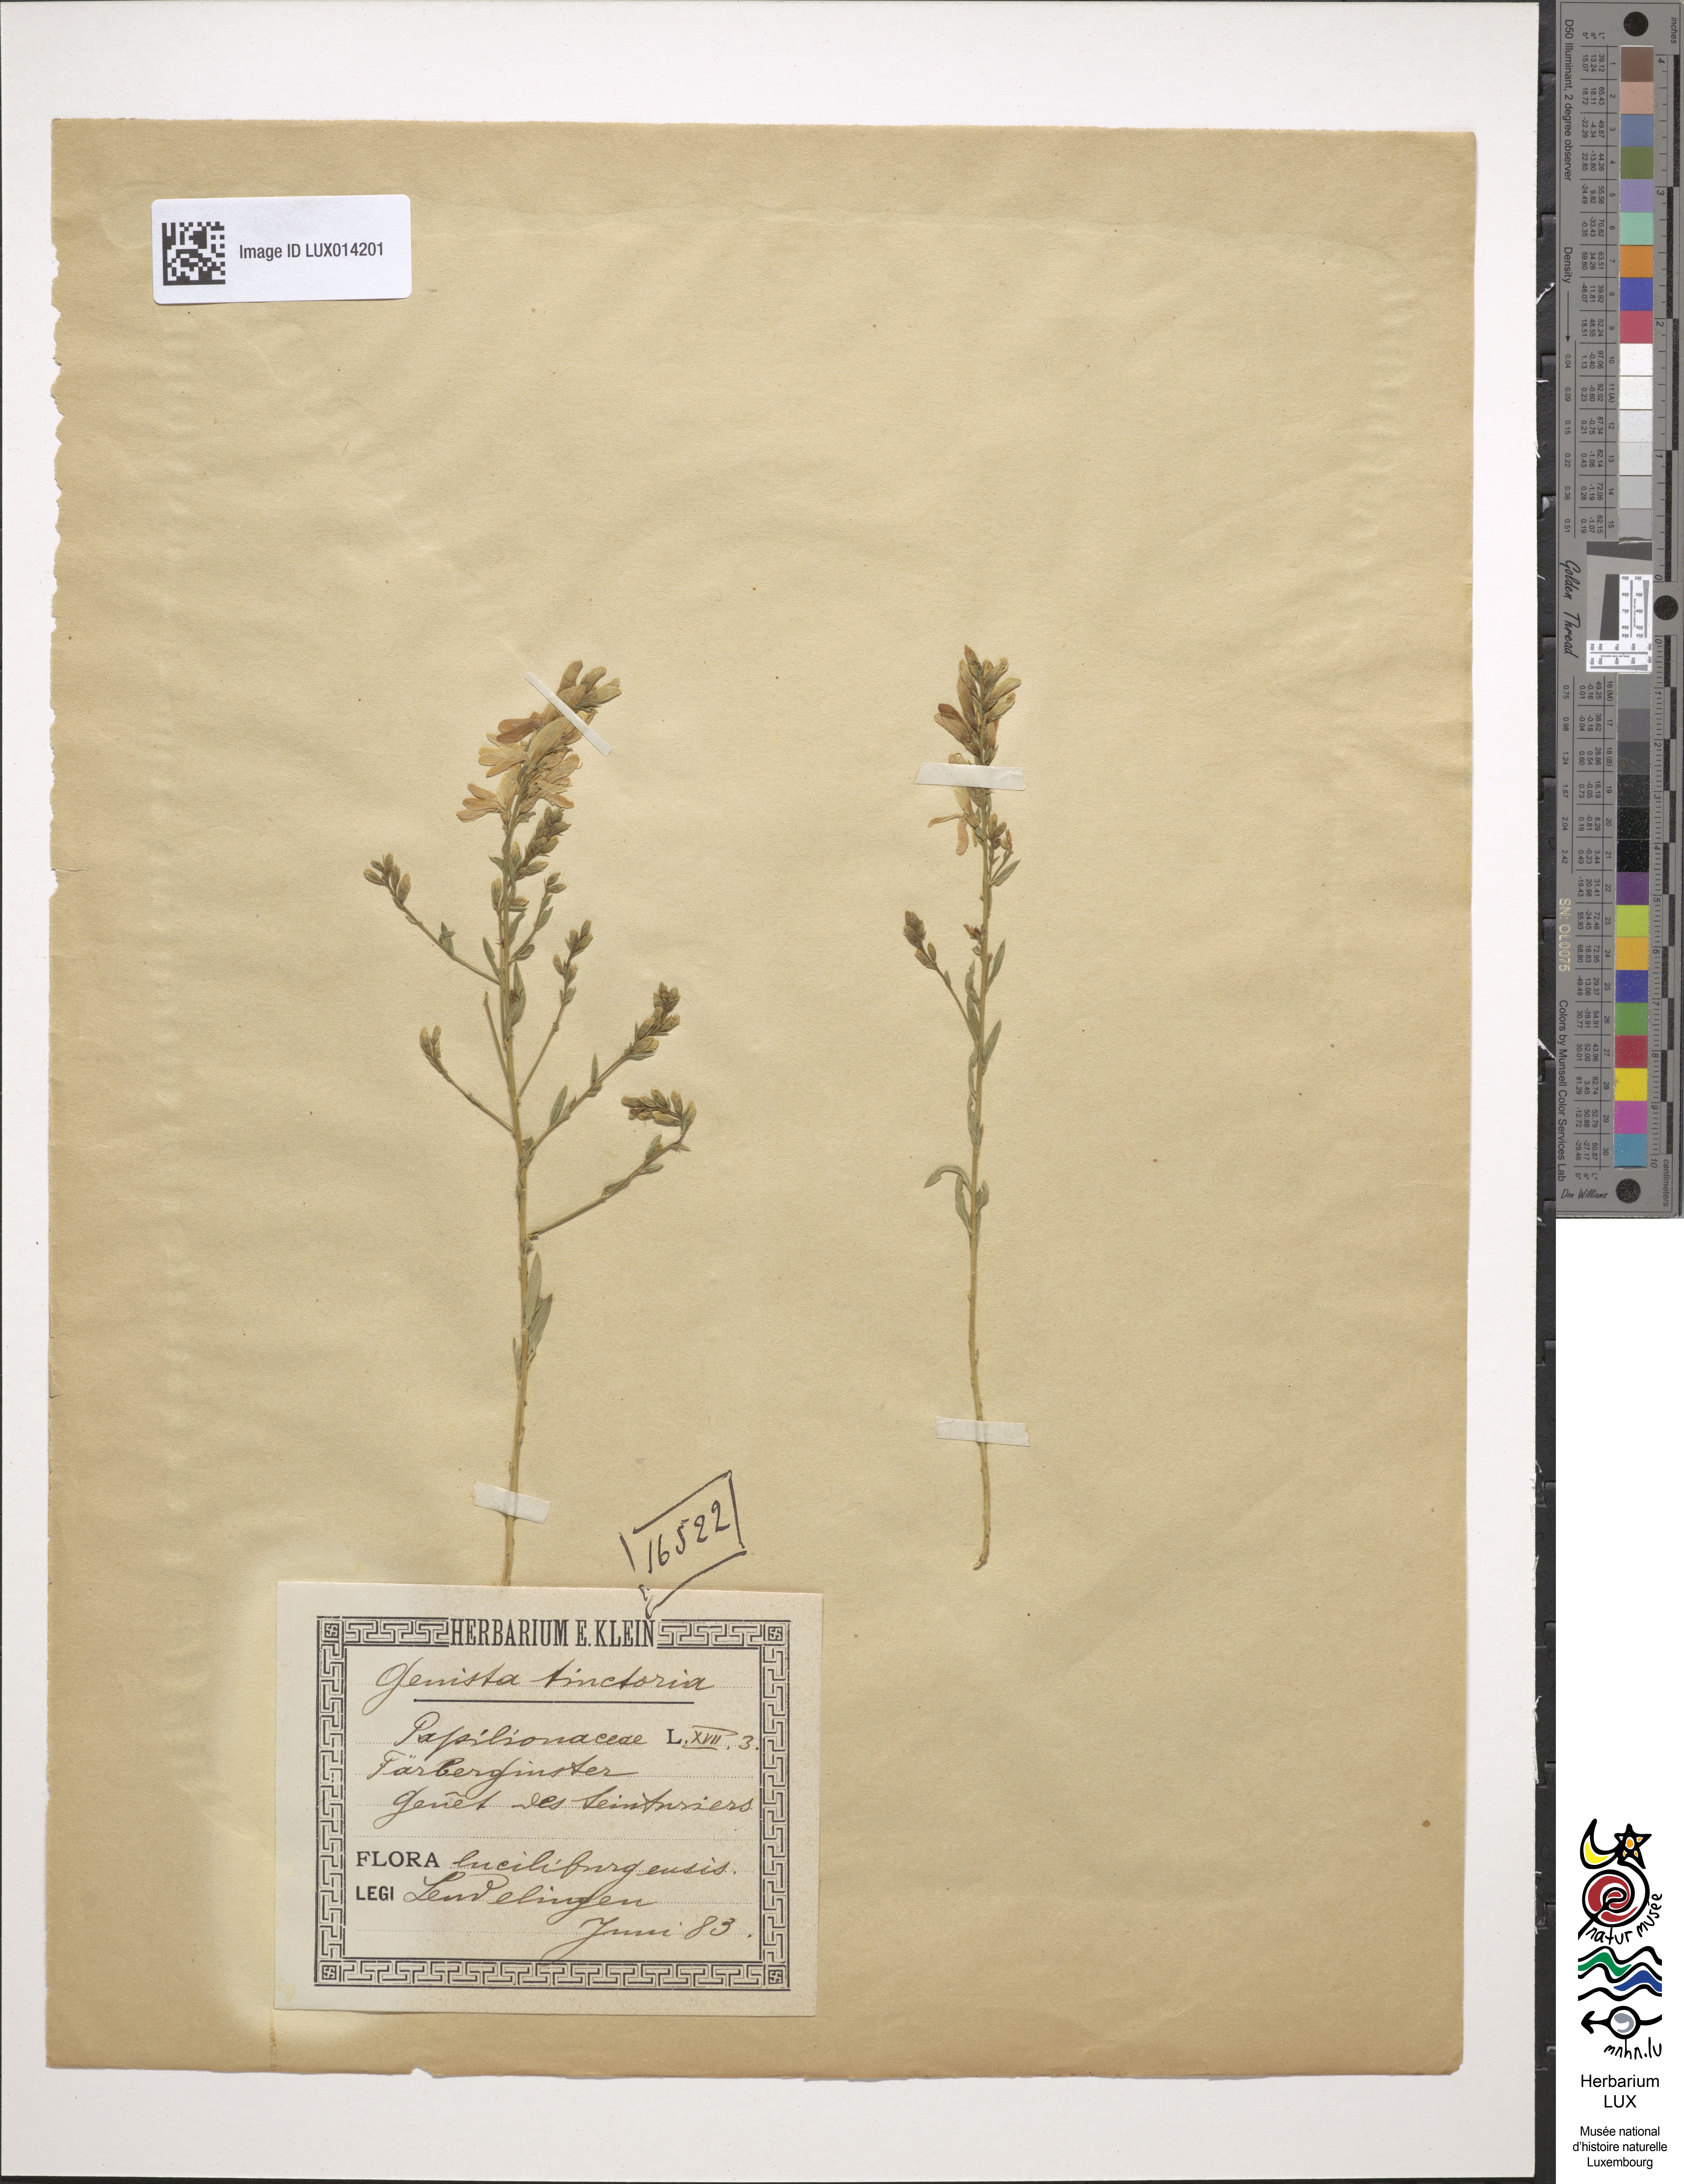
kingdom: Plantae
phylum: Tracheophyta
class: Magnoliopsida
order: Fabales
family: Fabaceae
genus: Genista
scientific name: Genista tinctoria
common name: Dyer's greenweed
